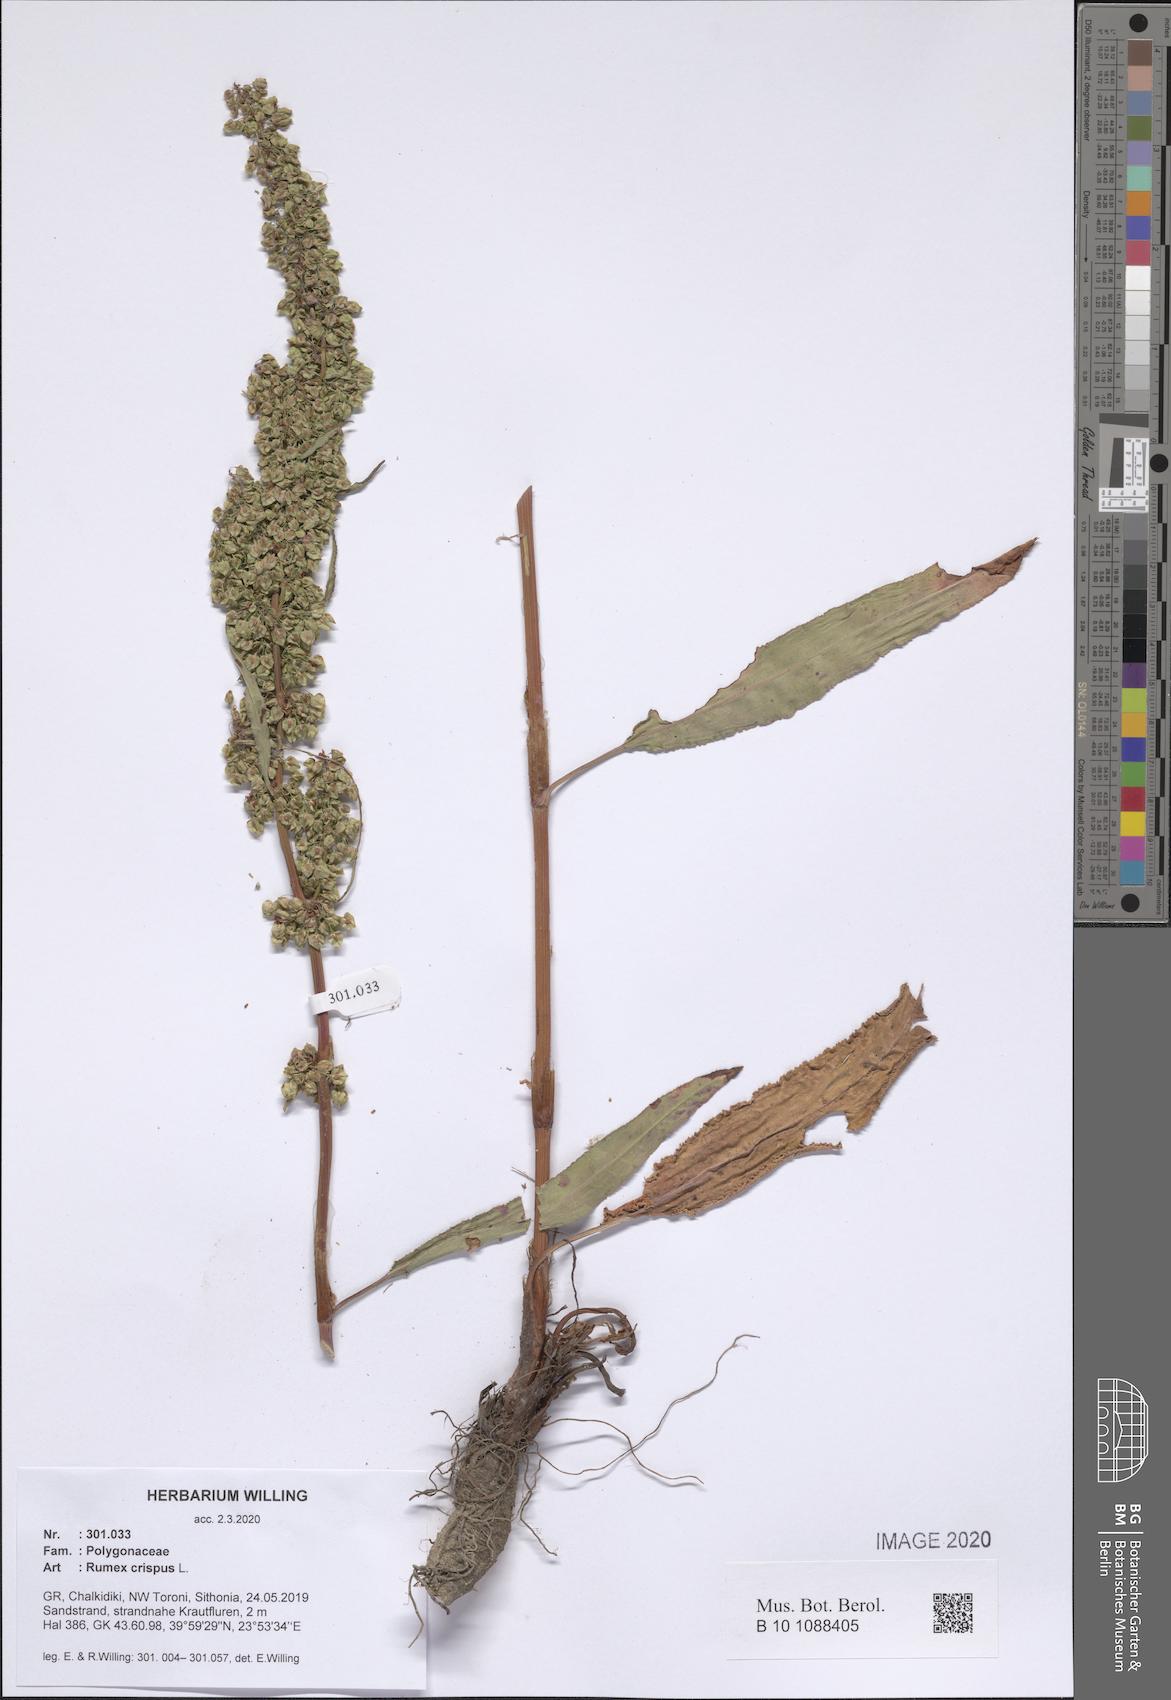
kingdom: Plantae
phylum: Tracheophyta
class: Magnoliopsida
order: Caryophyllales
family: Polygonaceae
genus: Rumex
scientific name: Rumex crispus
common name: Curled dock
